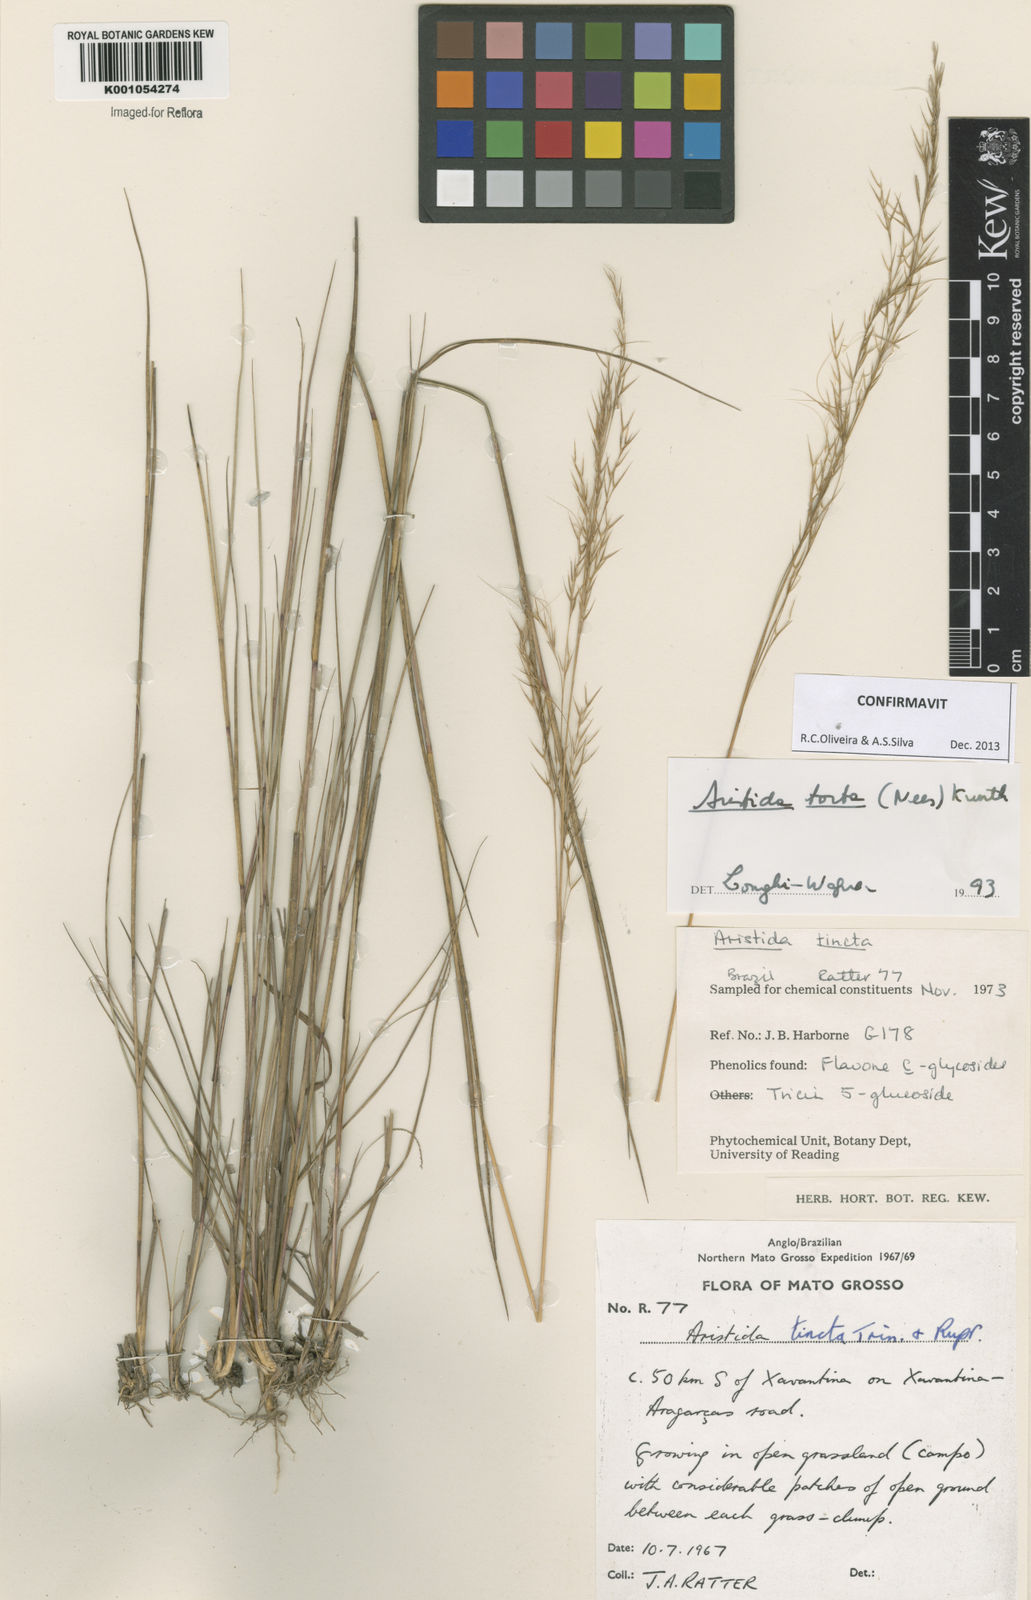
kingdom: Plantae
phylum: Tracheophyta
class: Liliopsida
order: Poales
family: Poaceae
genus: Aristida
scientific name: Aristida torta
